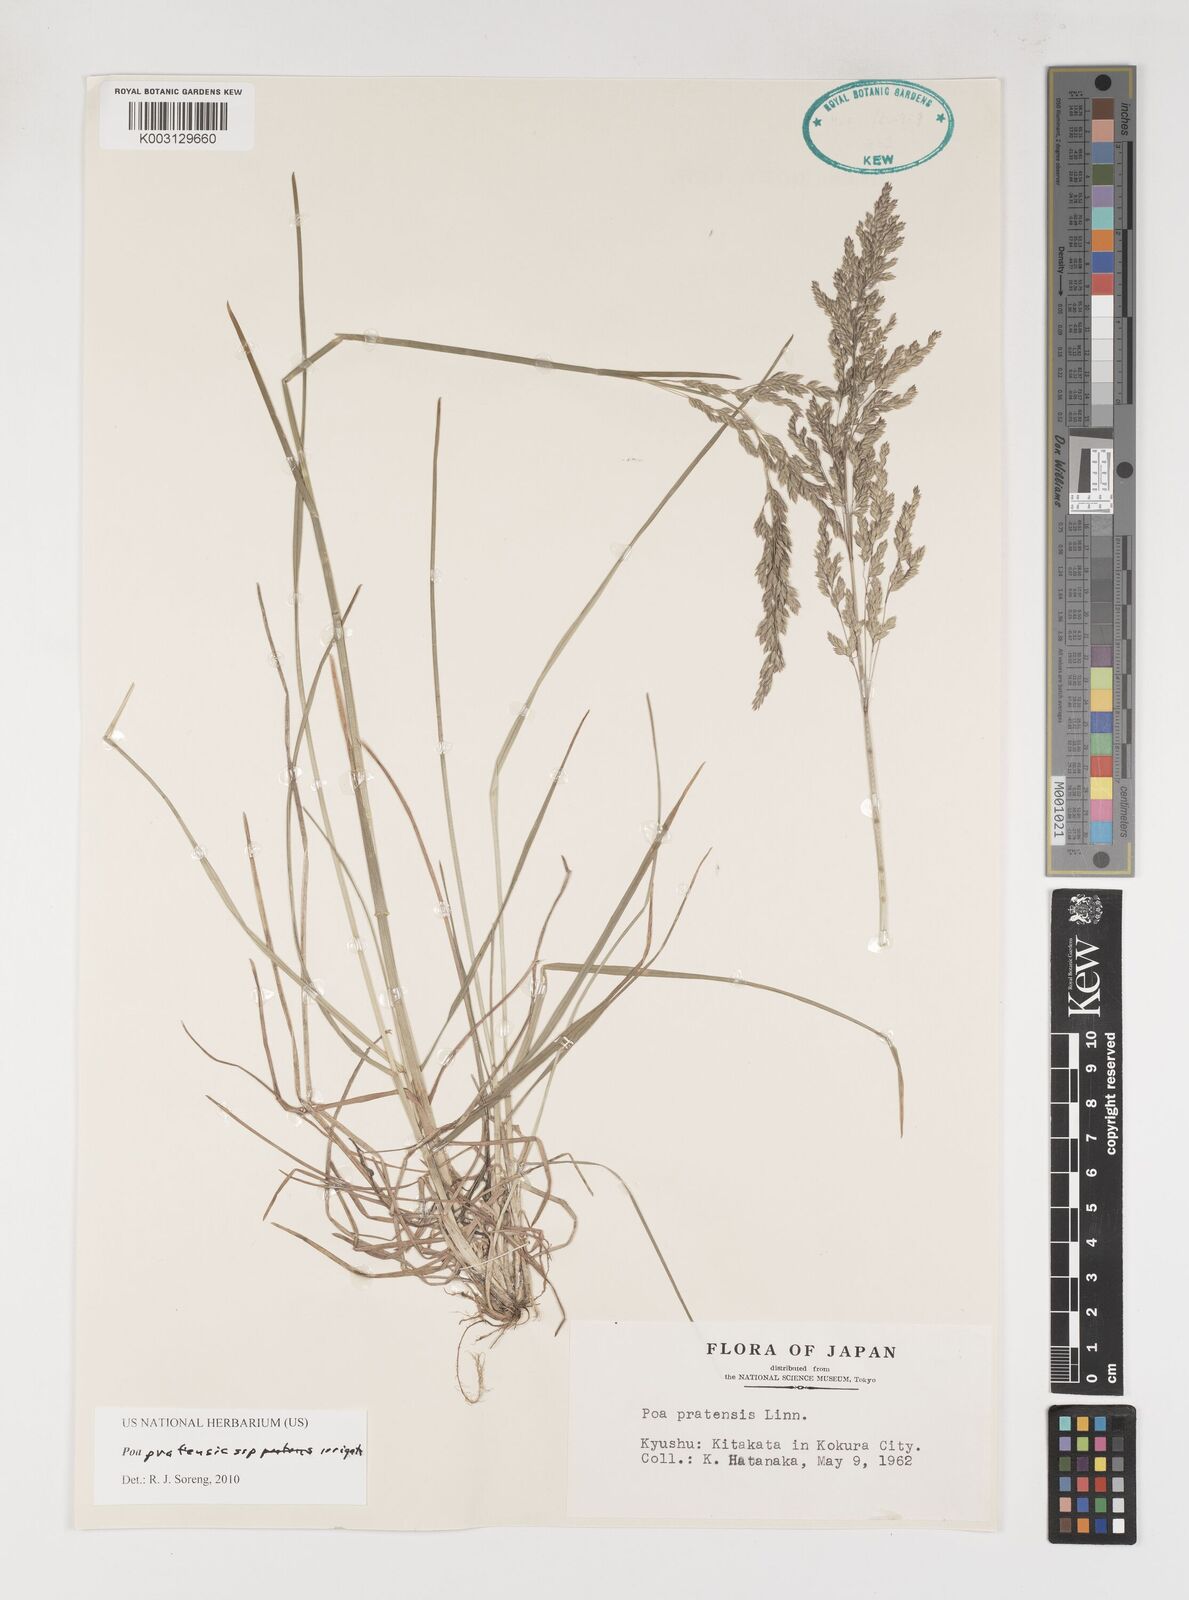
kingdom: Plantae
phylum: Tracheophyta
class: Liliopsida
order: Poales
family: Poaceae
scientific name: Poaceae
